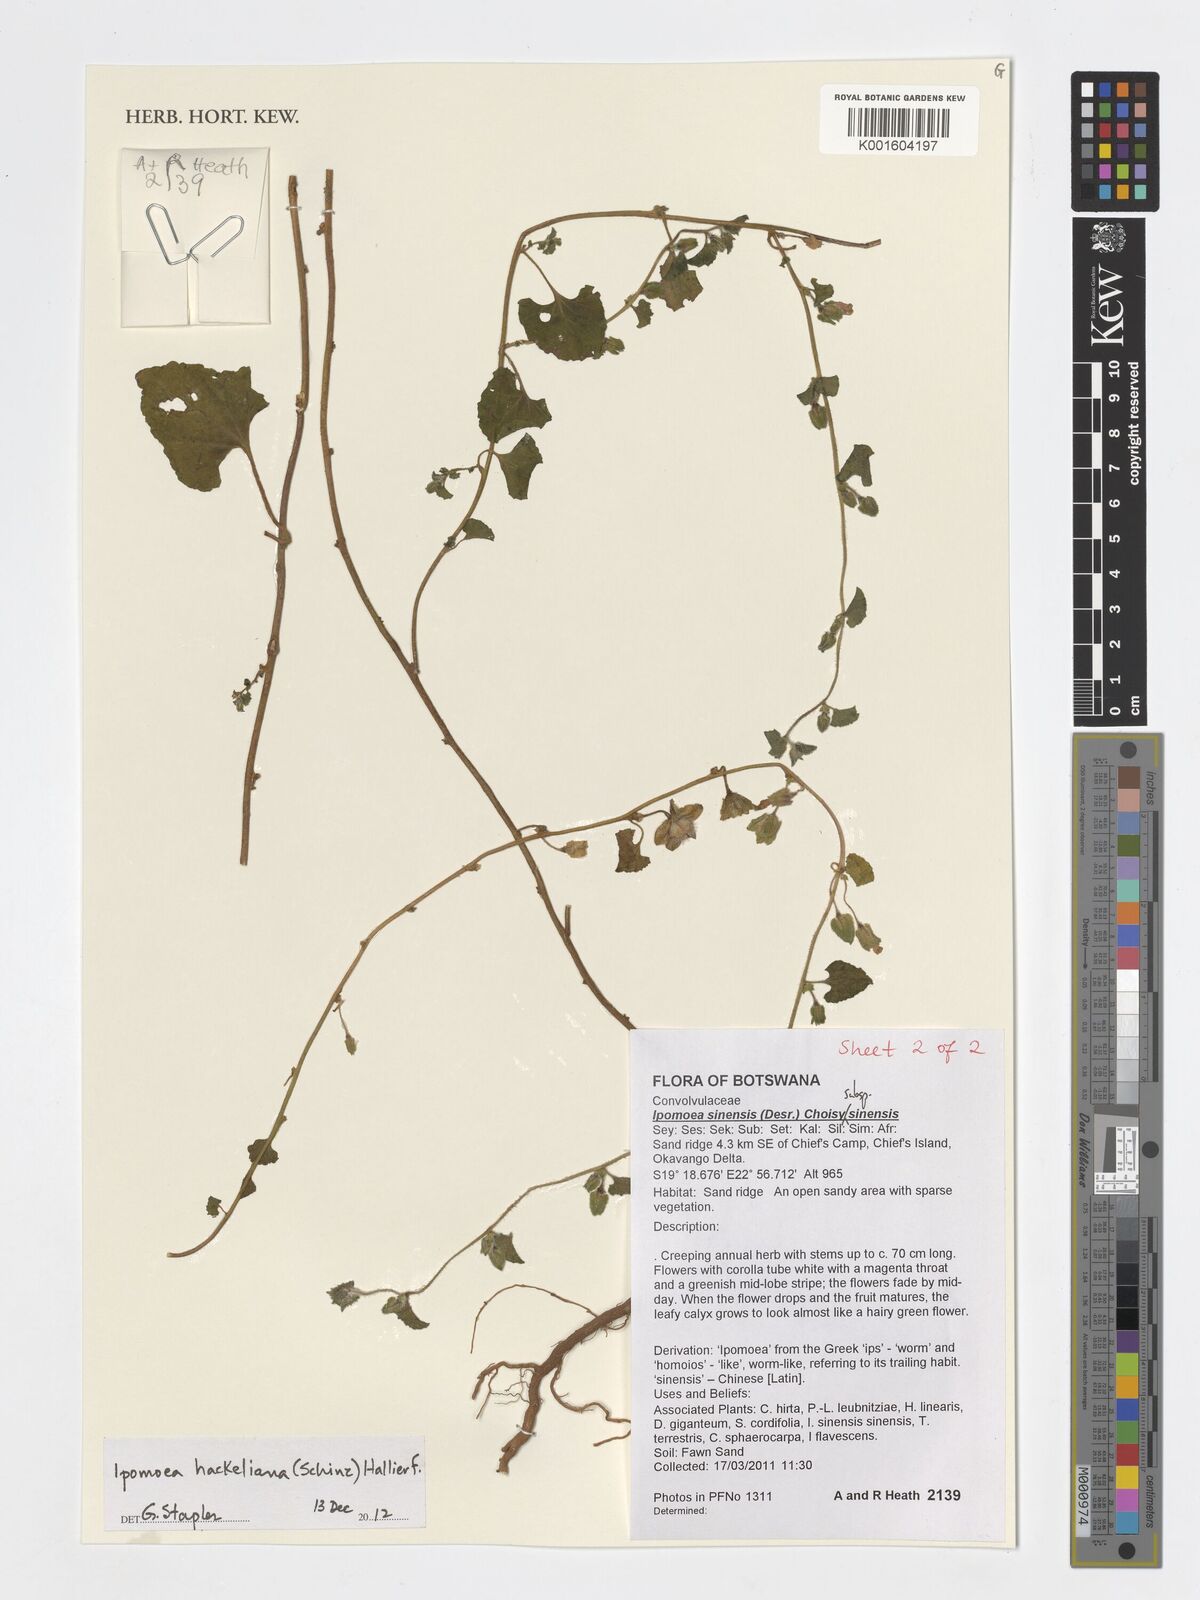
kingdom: Plantae
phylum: Tracheophyta
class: Magnoliopsida
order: Solanales
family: Convolvulaceae
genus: Ipomoea
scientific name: Ipomoea hackeliana
